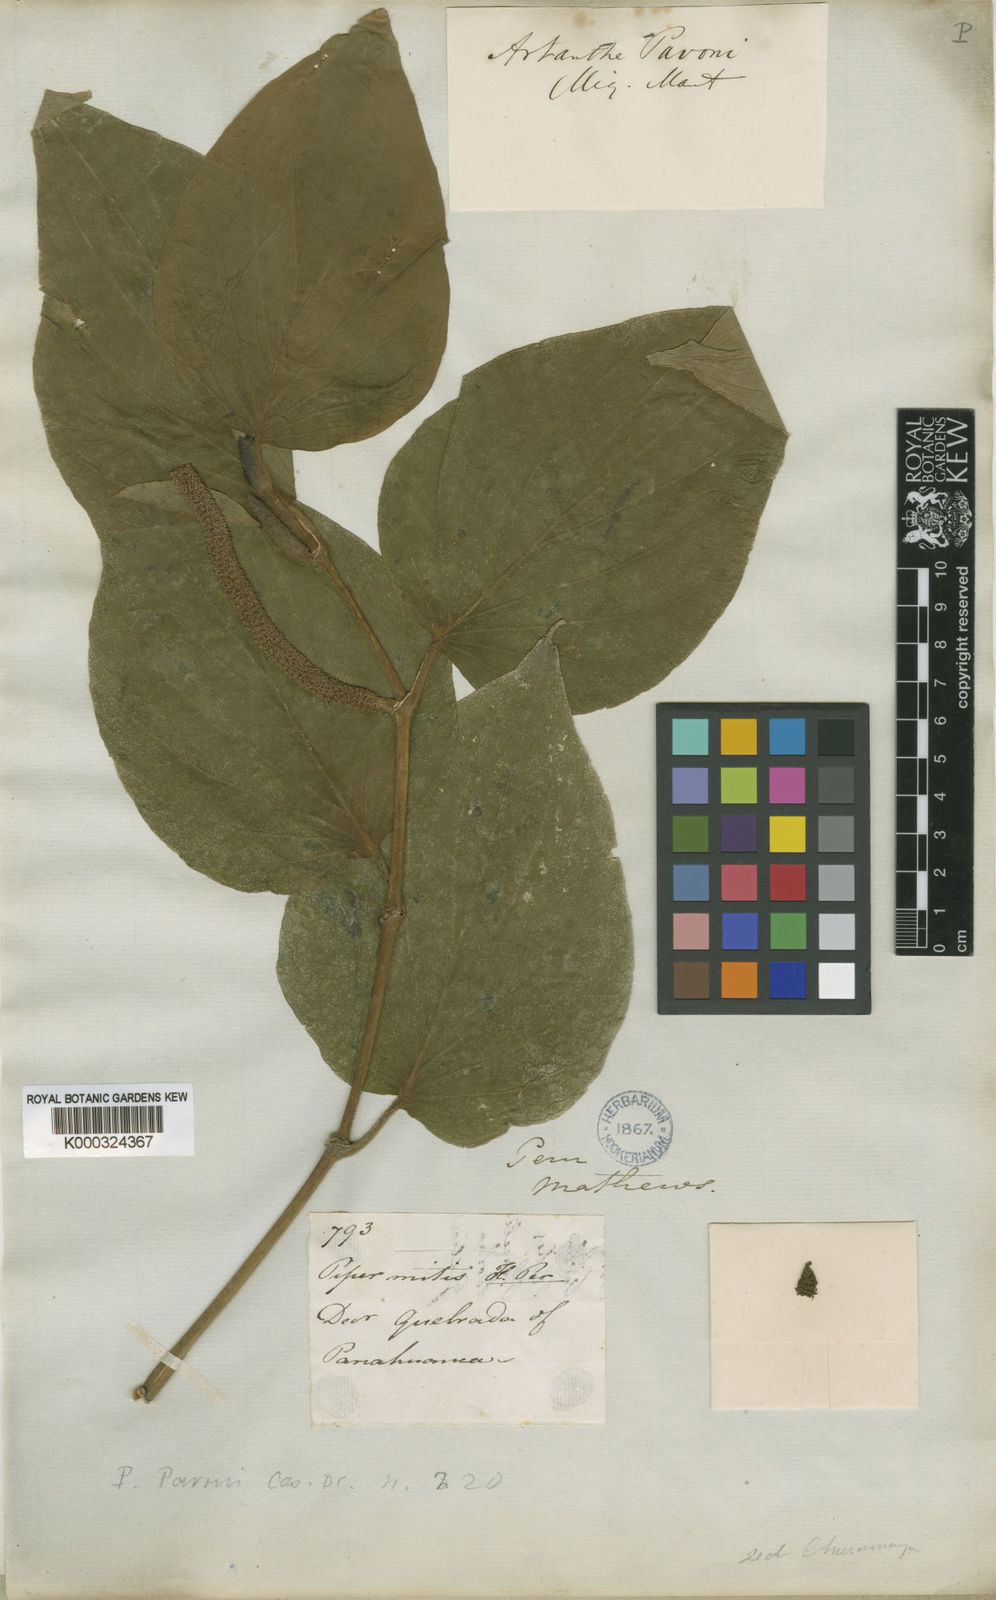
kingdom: Plantae
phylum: Tracheophyta
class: Magnoliopsida
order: Piperales
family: Piperaceae
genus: Piper
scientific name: Piper pavonii
